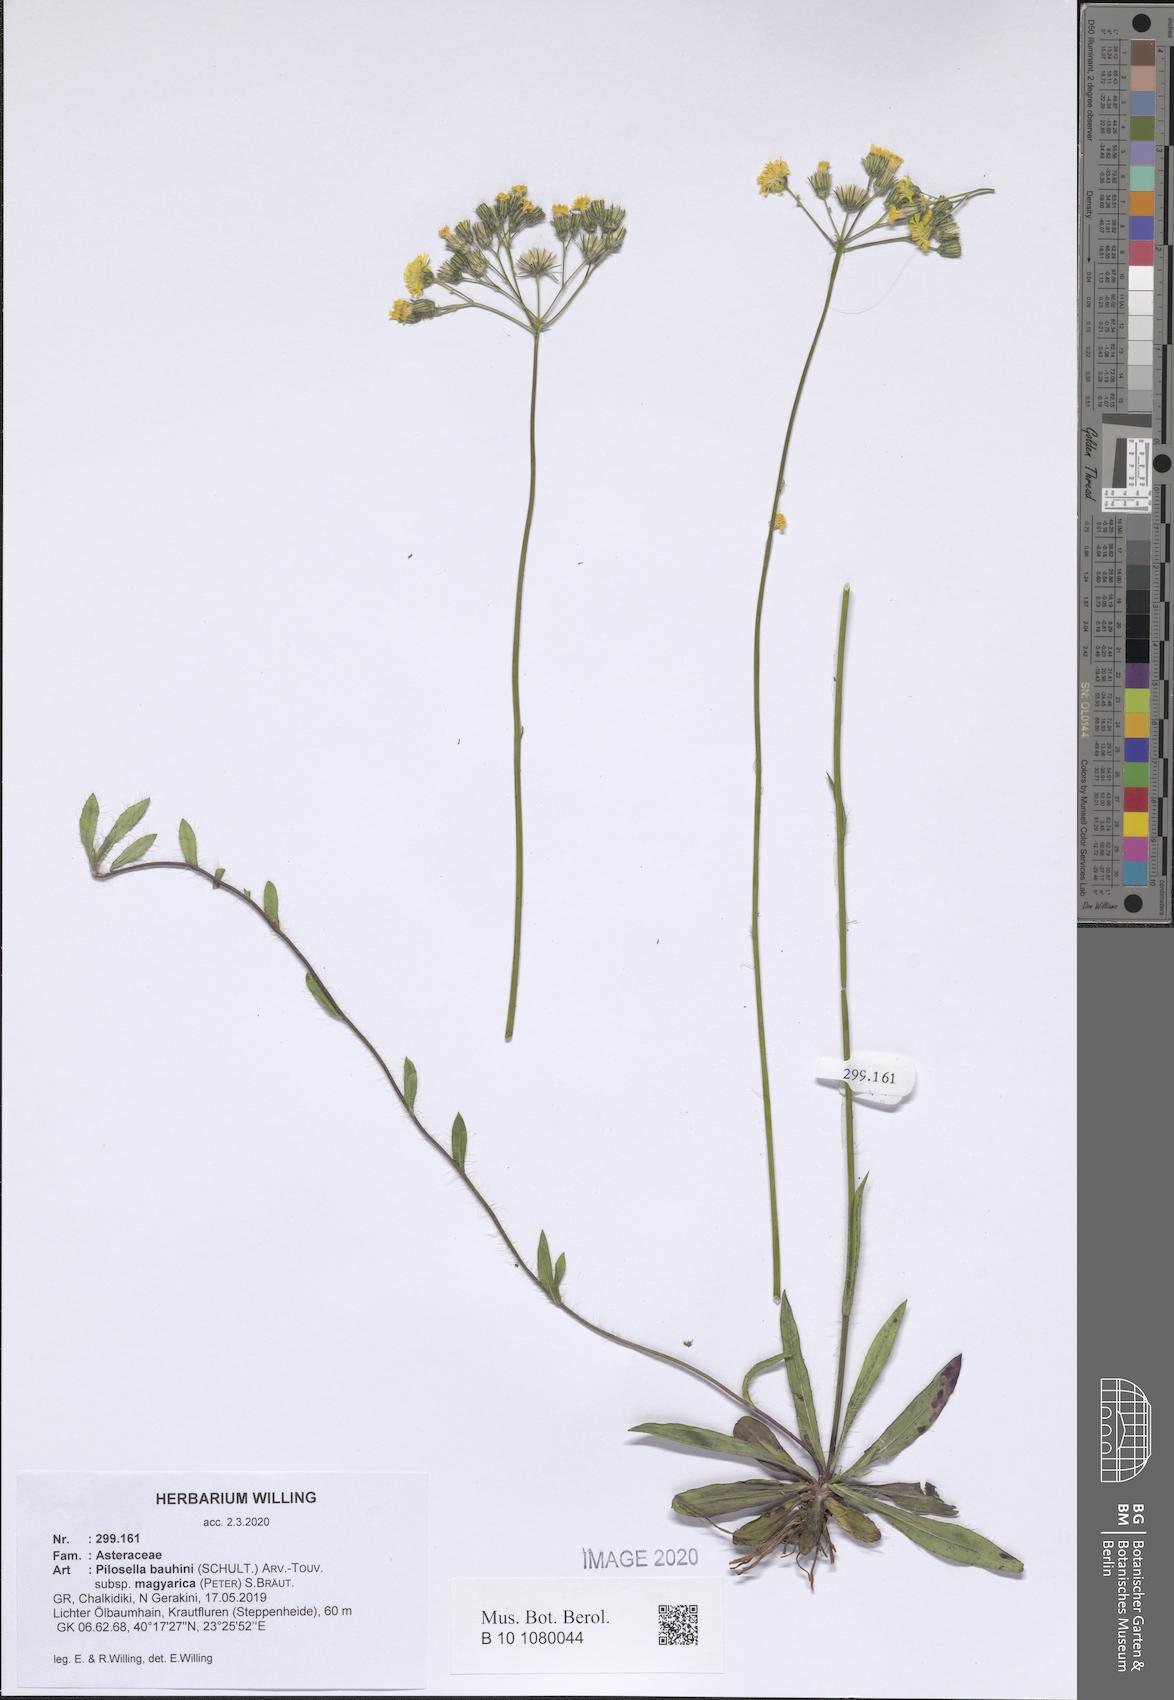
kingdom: Plantae
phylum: Tracheophyta
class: Magnoliopsida
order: Asterales
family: Asteraceae
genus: Pilosella
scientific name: Pilosella bauhini
